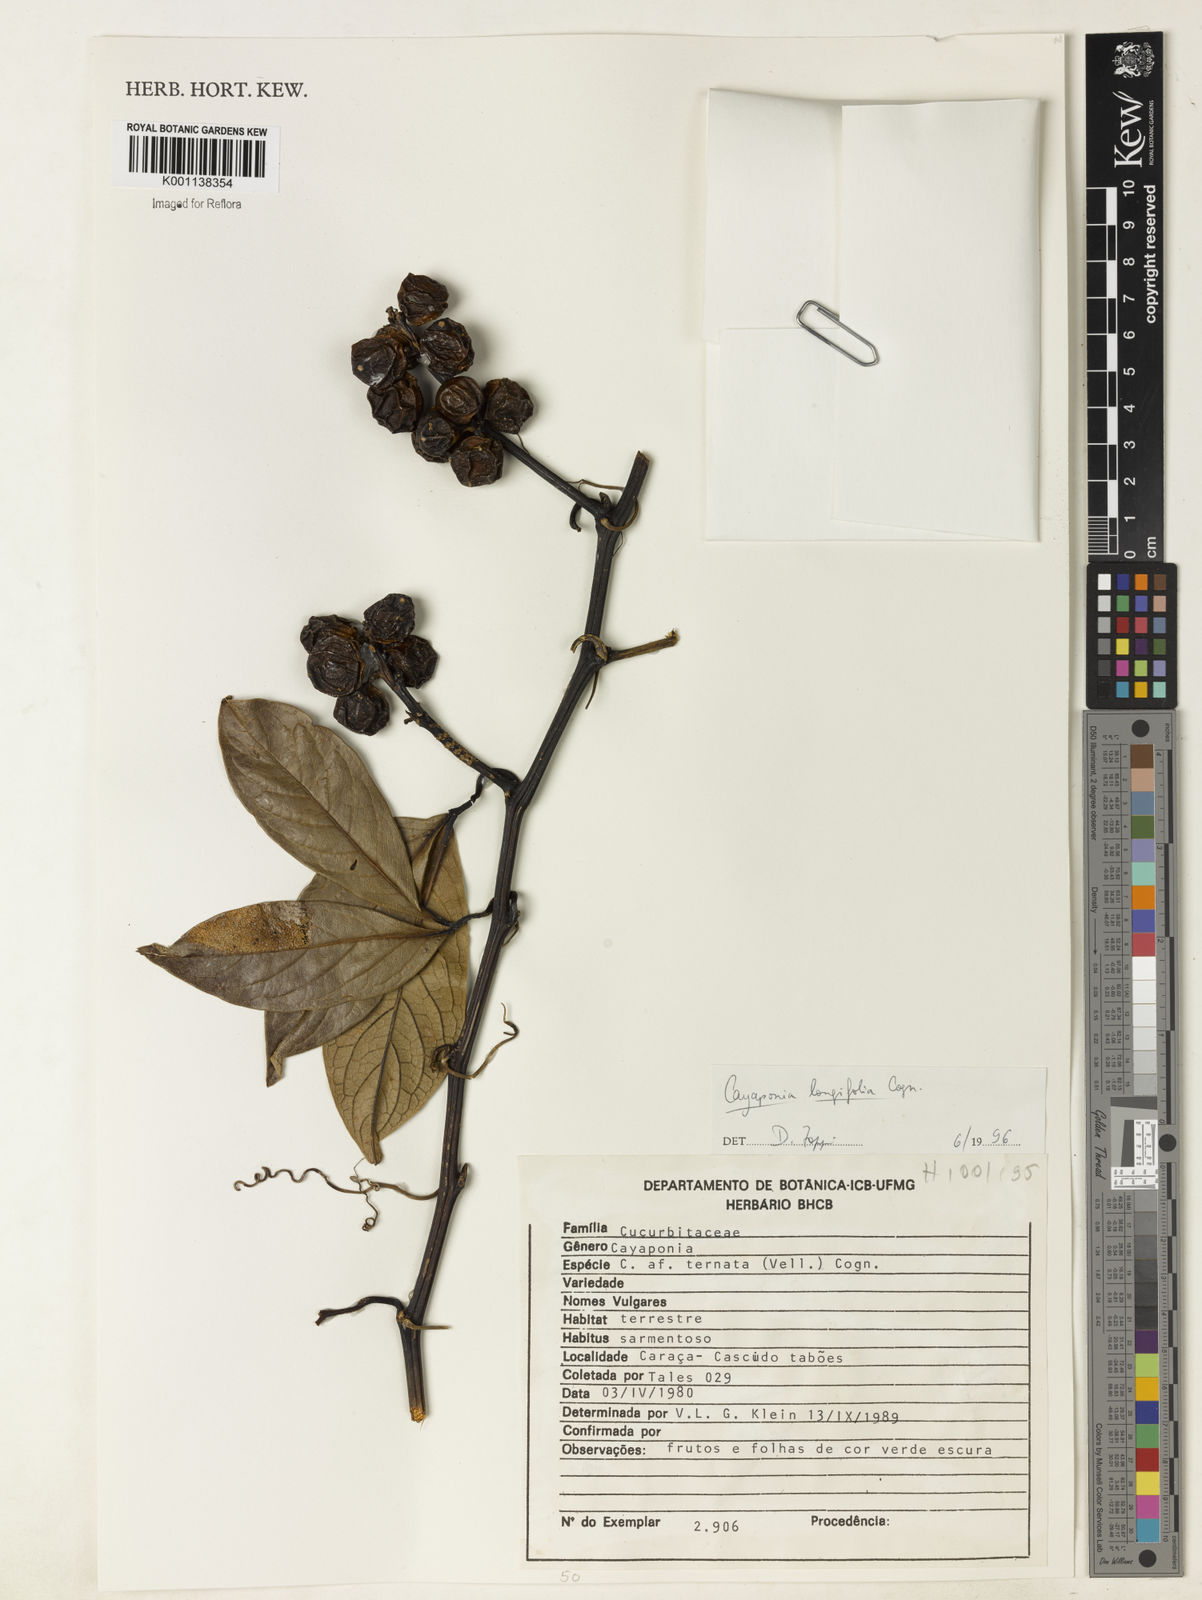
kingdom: Plantae
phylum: Tracheophyta
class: Magnoliopsida
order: Cucurbitales
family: Cucurbitaceae
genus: Cayaponia
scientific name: Cayaponia longifolia
